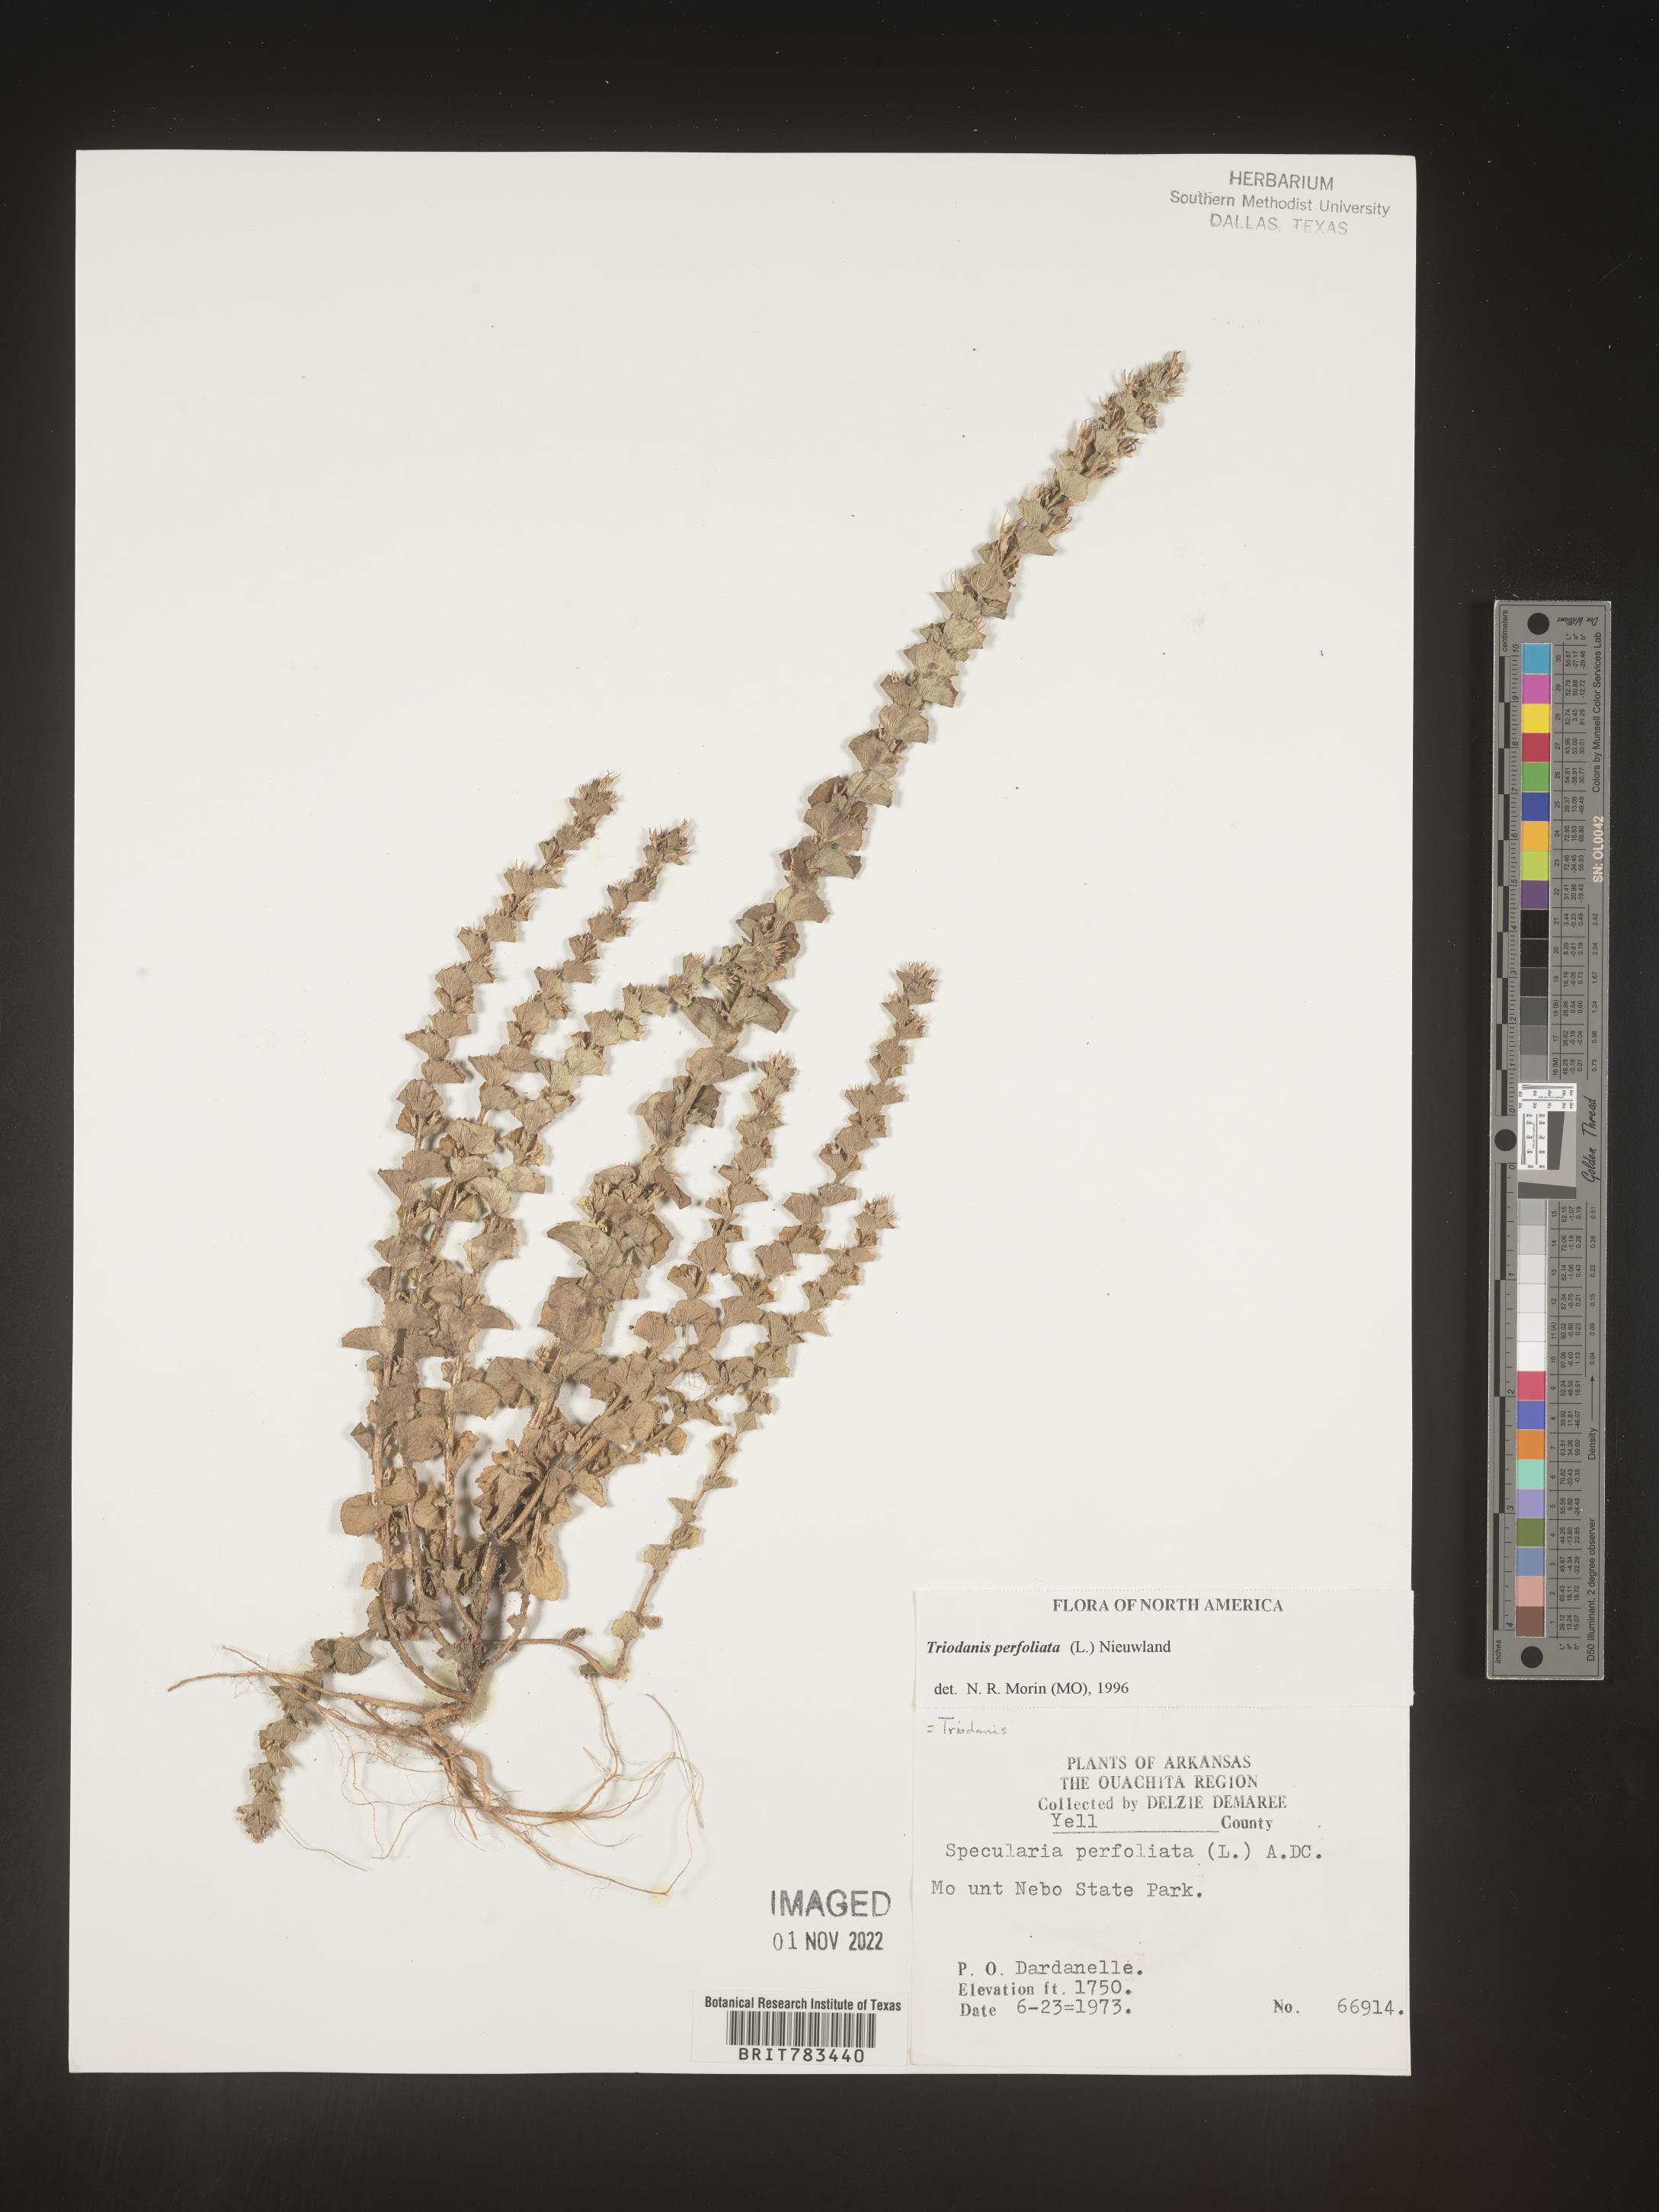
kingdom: Plantae
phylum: Tracheophyta
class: Magnoliopsida
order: Asterales
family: Campanulaceae
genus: Triodanis
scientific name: Triodanis perfoliata
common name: Clasping venus' looking-glass
